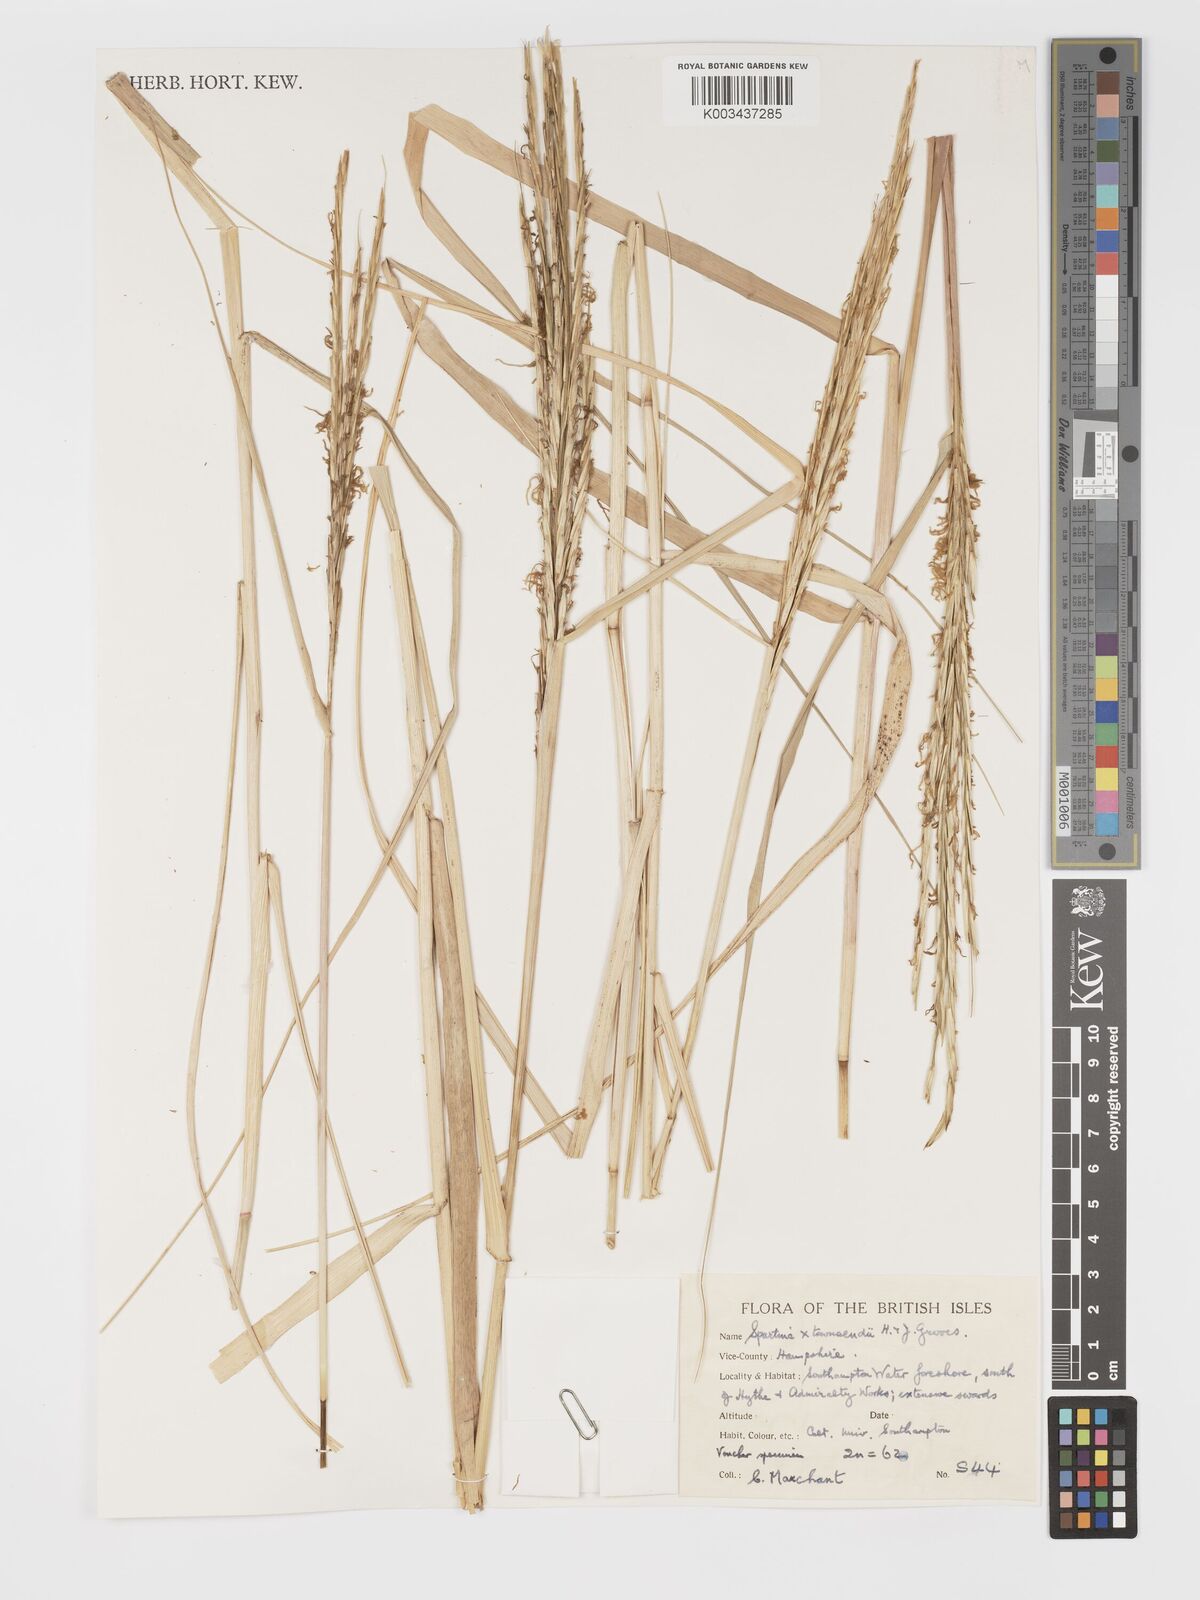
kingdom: Plantae
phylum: Tracheophyta
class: Liliopsida
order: Poales
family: Poaceae
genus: Sporobolus
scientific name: Sporobolus townsendii
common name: Townsend's cordgrass
